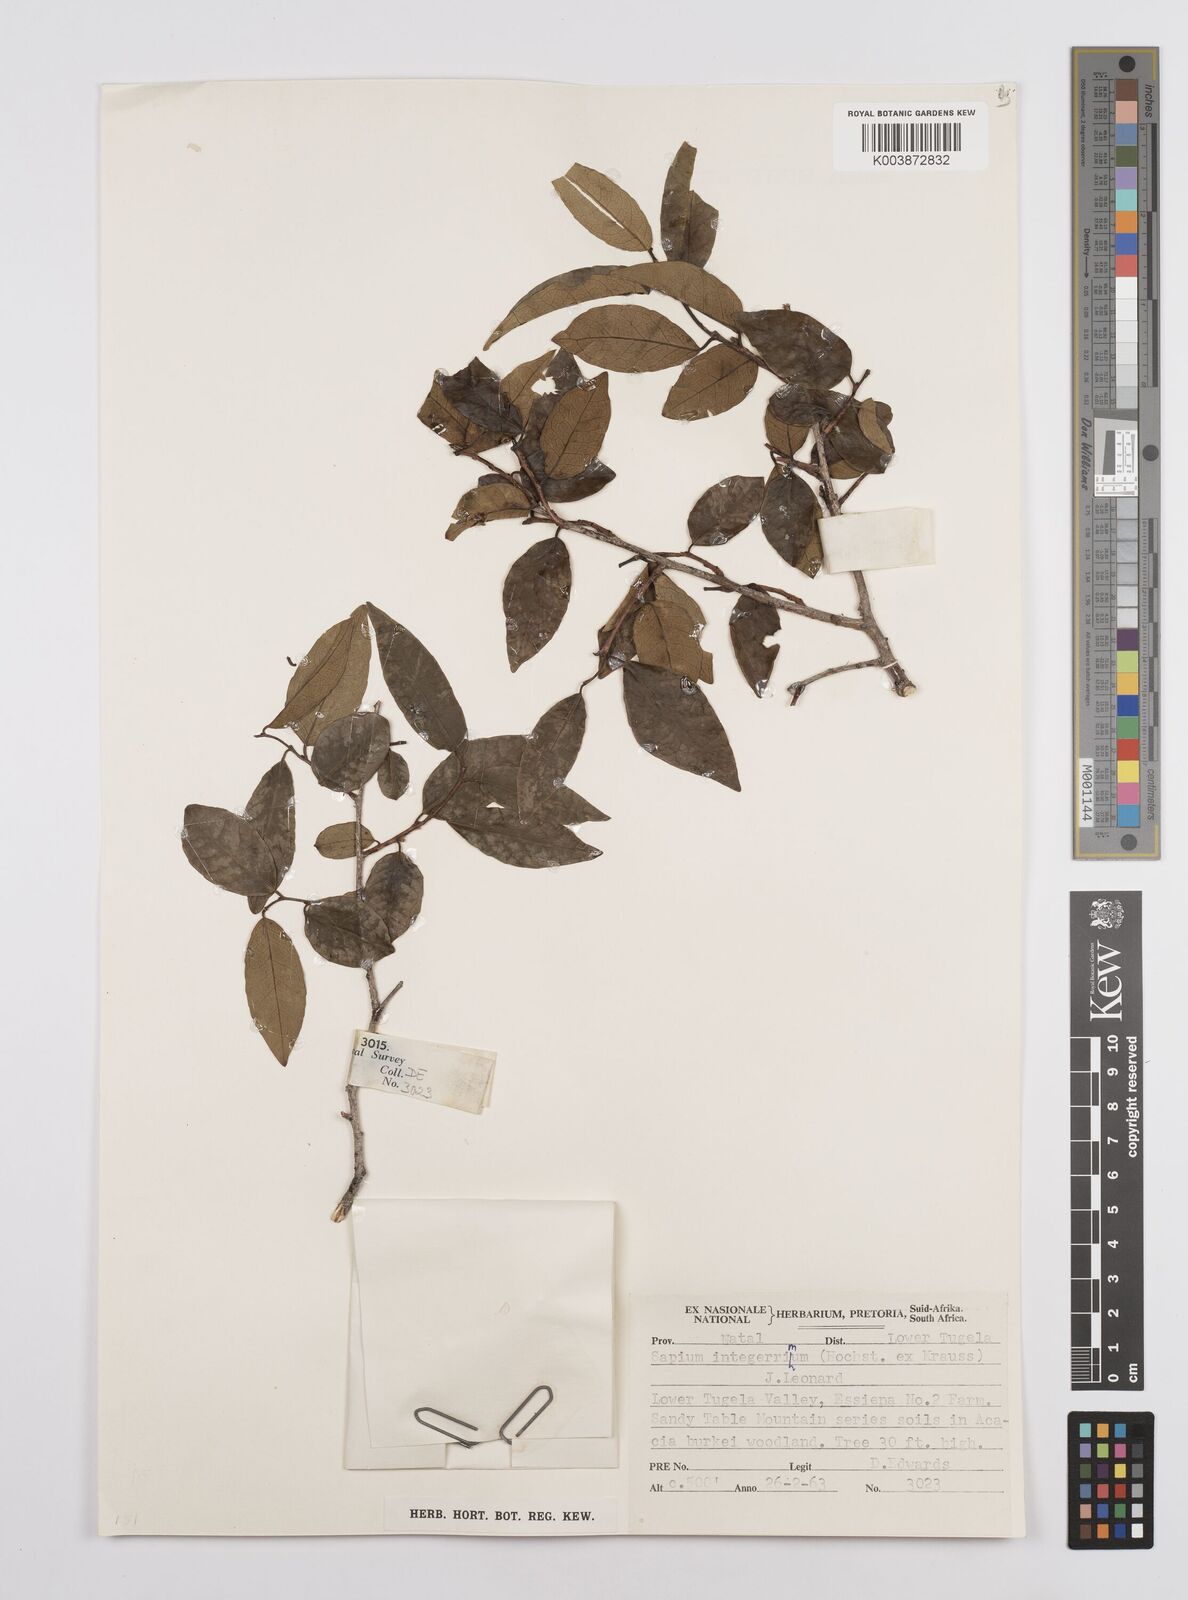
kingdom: Plantae
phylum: Tracheophyta
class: Magnoliopsida
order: Malpighiales
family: Euphorbiaceae
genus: Sclerocroton
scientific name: Sclerocroton integerrimus
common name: Duiker berry
